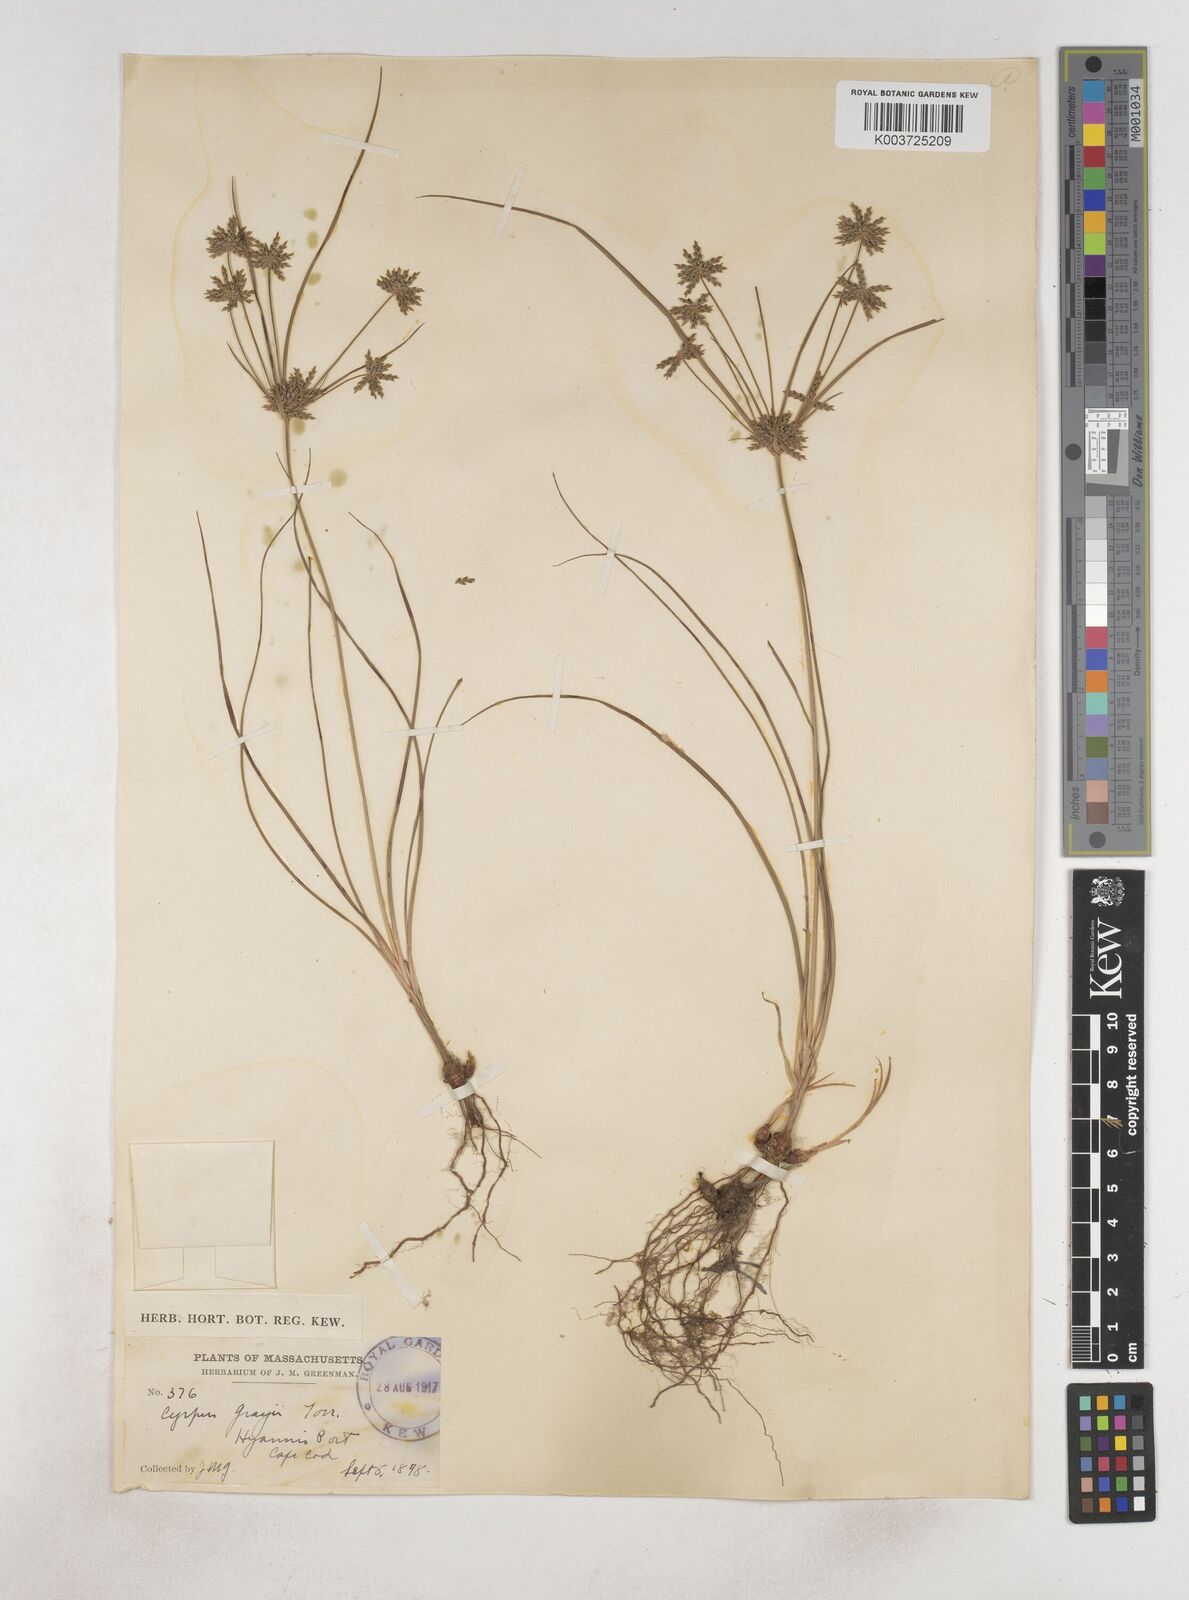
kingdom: Plantae
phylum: Tracheophyta
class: Liliopsida
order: Poales
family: Cyperaceae
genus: Cyperus
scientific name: Cyperus grayi
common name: Gray's flat sedge
